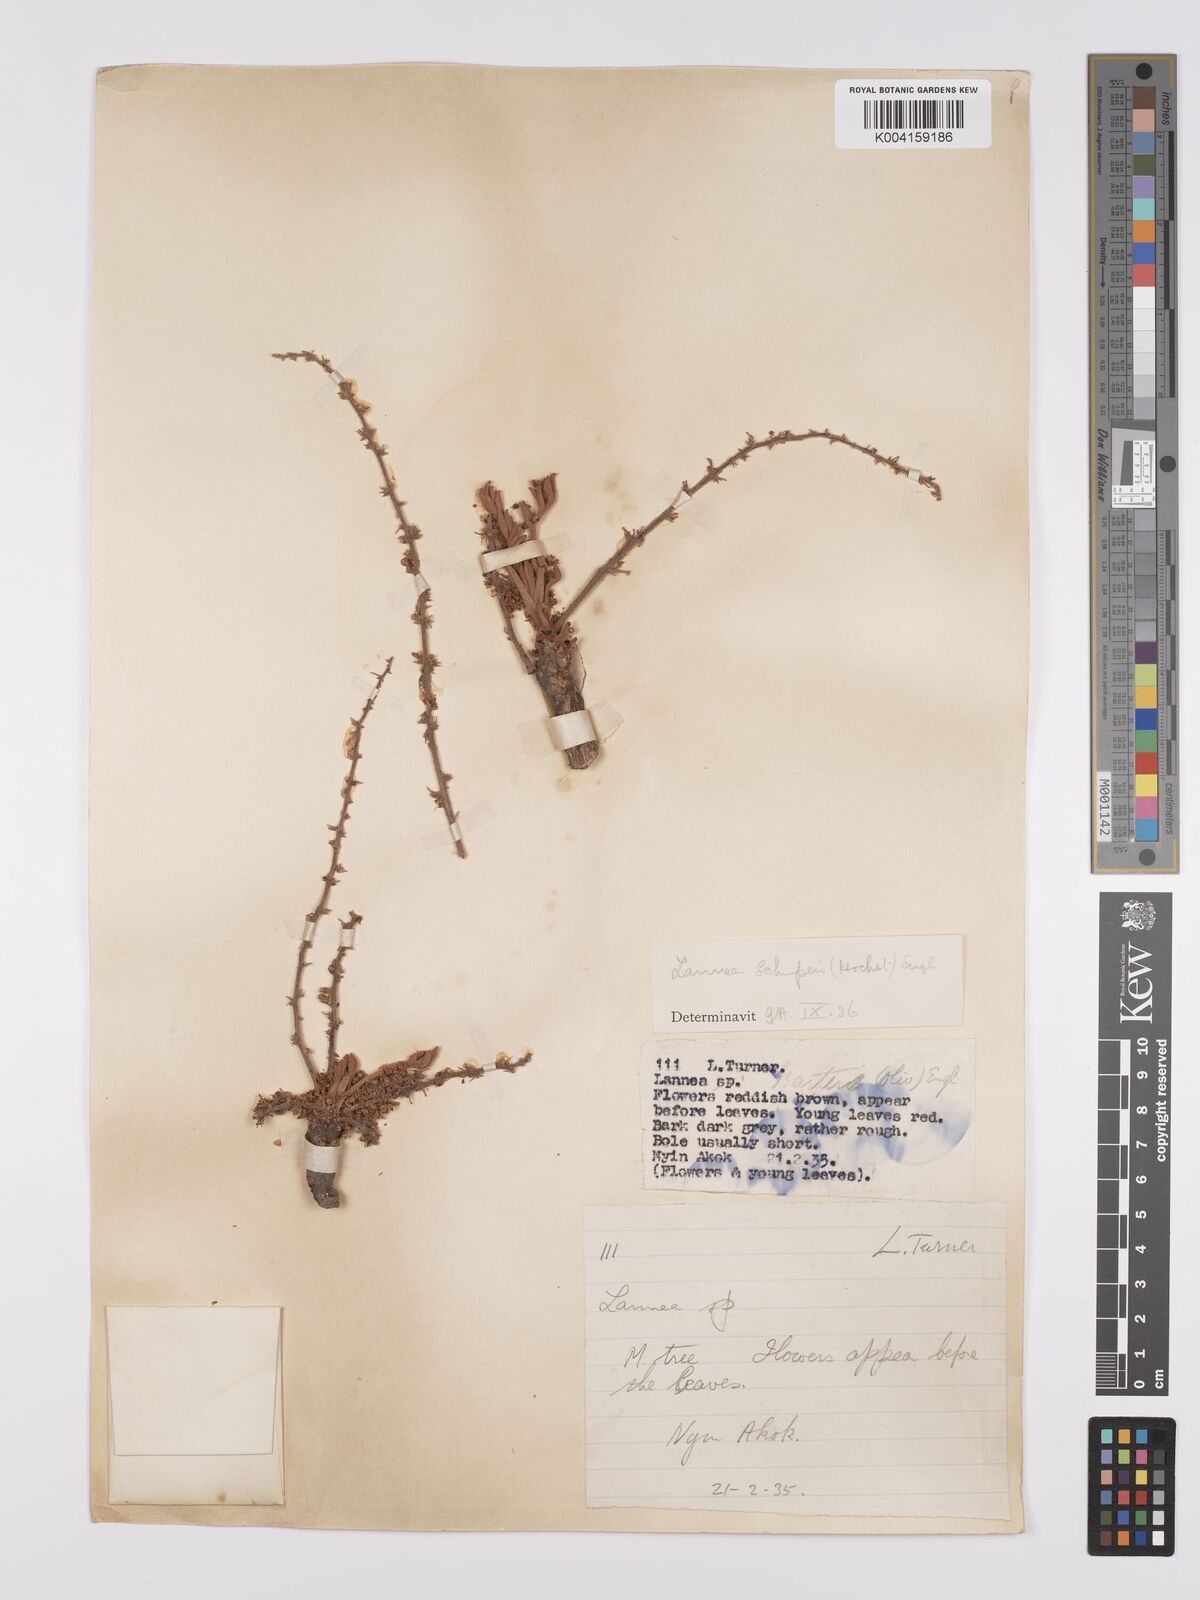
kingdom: Plantae
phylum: Tracheophyta
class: Magnoliopsida
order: Sapindales
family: Anacardiaceae
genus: Lannea
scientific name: Lannea schimperi
